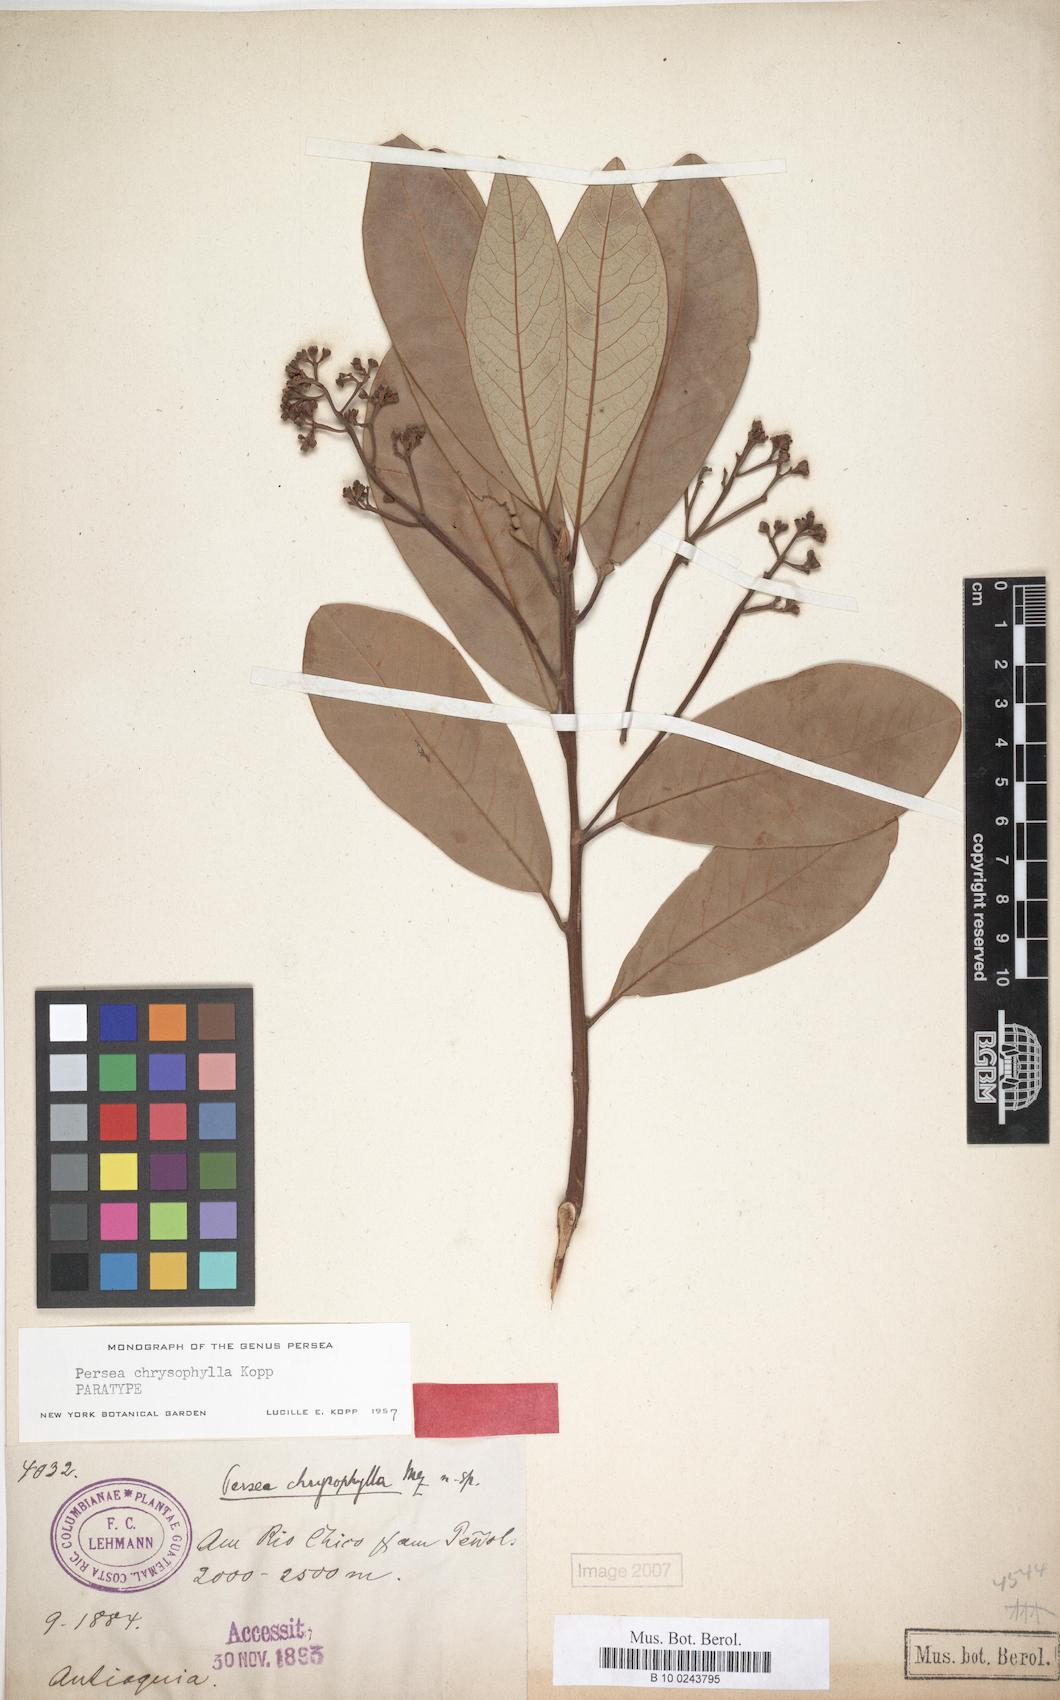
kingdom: Plantae
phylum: Tracheophyta
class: Magnoliopsida
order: Laurales
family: Lauraceae
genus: Persea
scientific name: Persea chrysophylla
